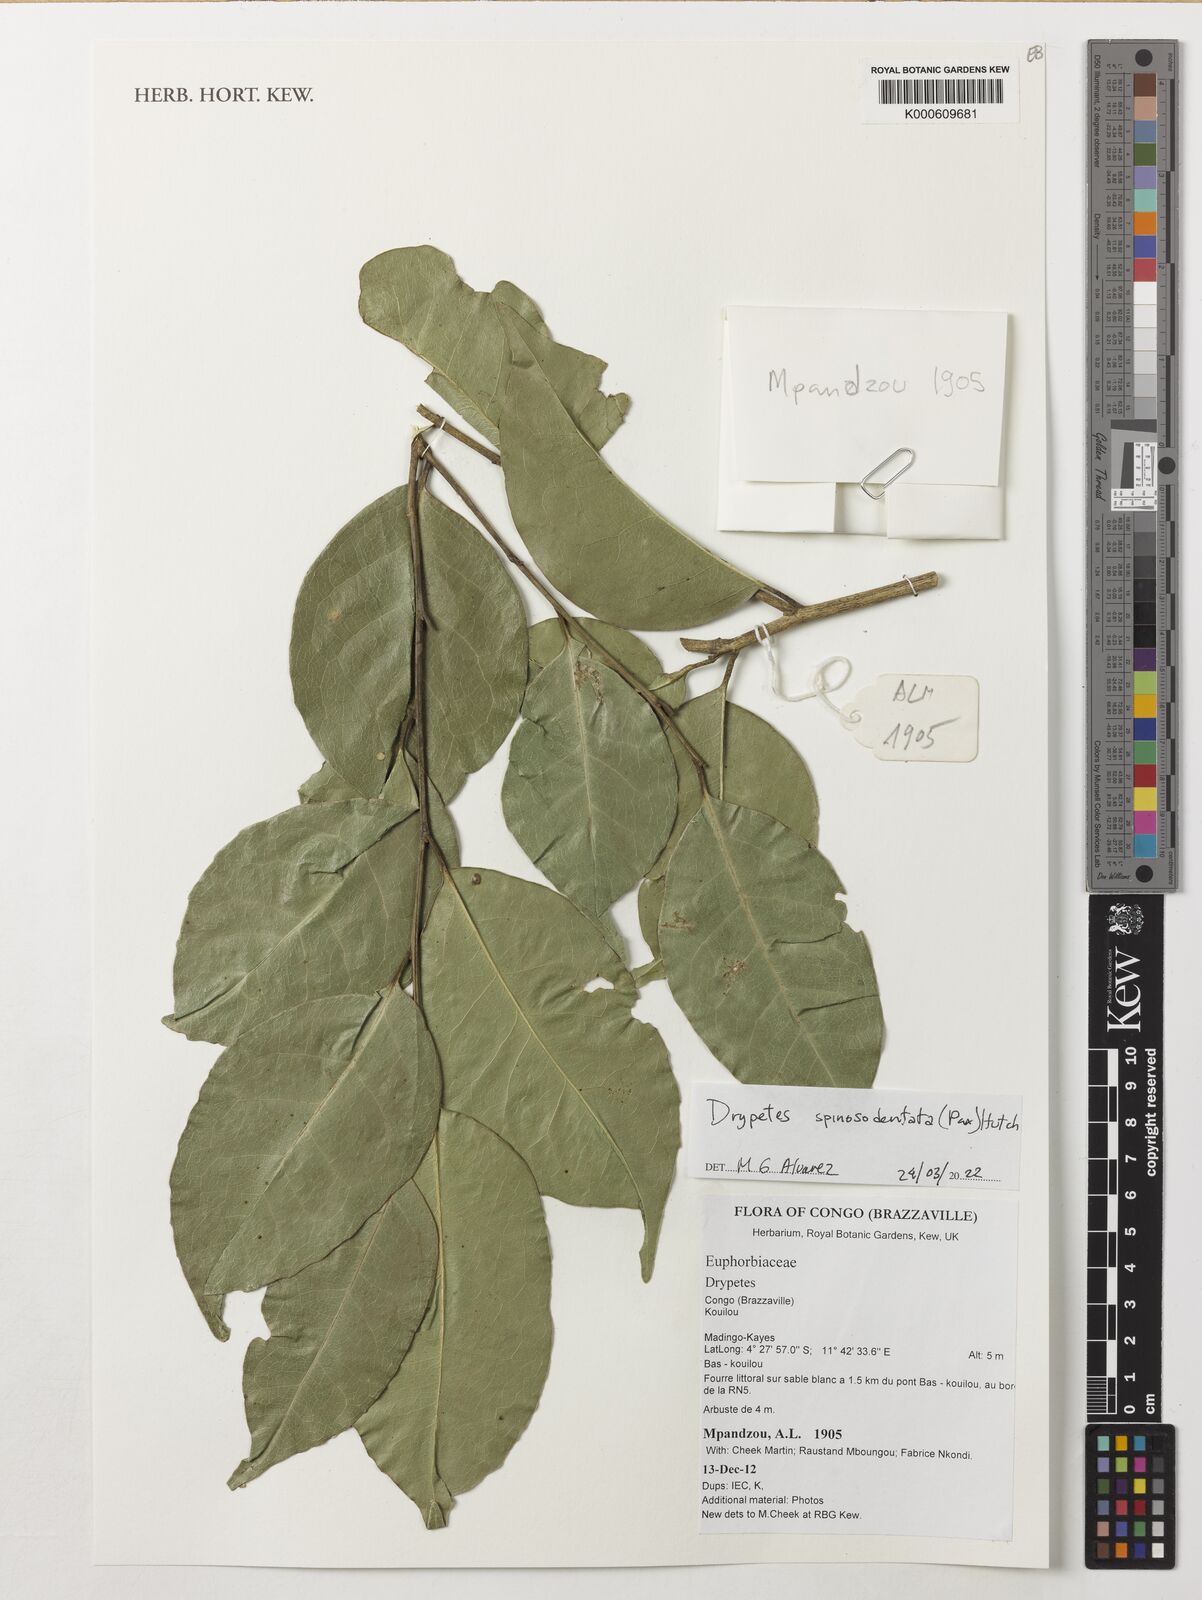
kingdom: Plantae
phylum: Tracheophyta
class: Magnoliopsida
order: Malpighiales
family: Putranjivaceae
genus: Drypetes
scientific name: Drypetes spinosodentata
